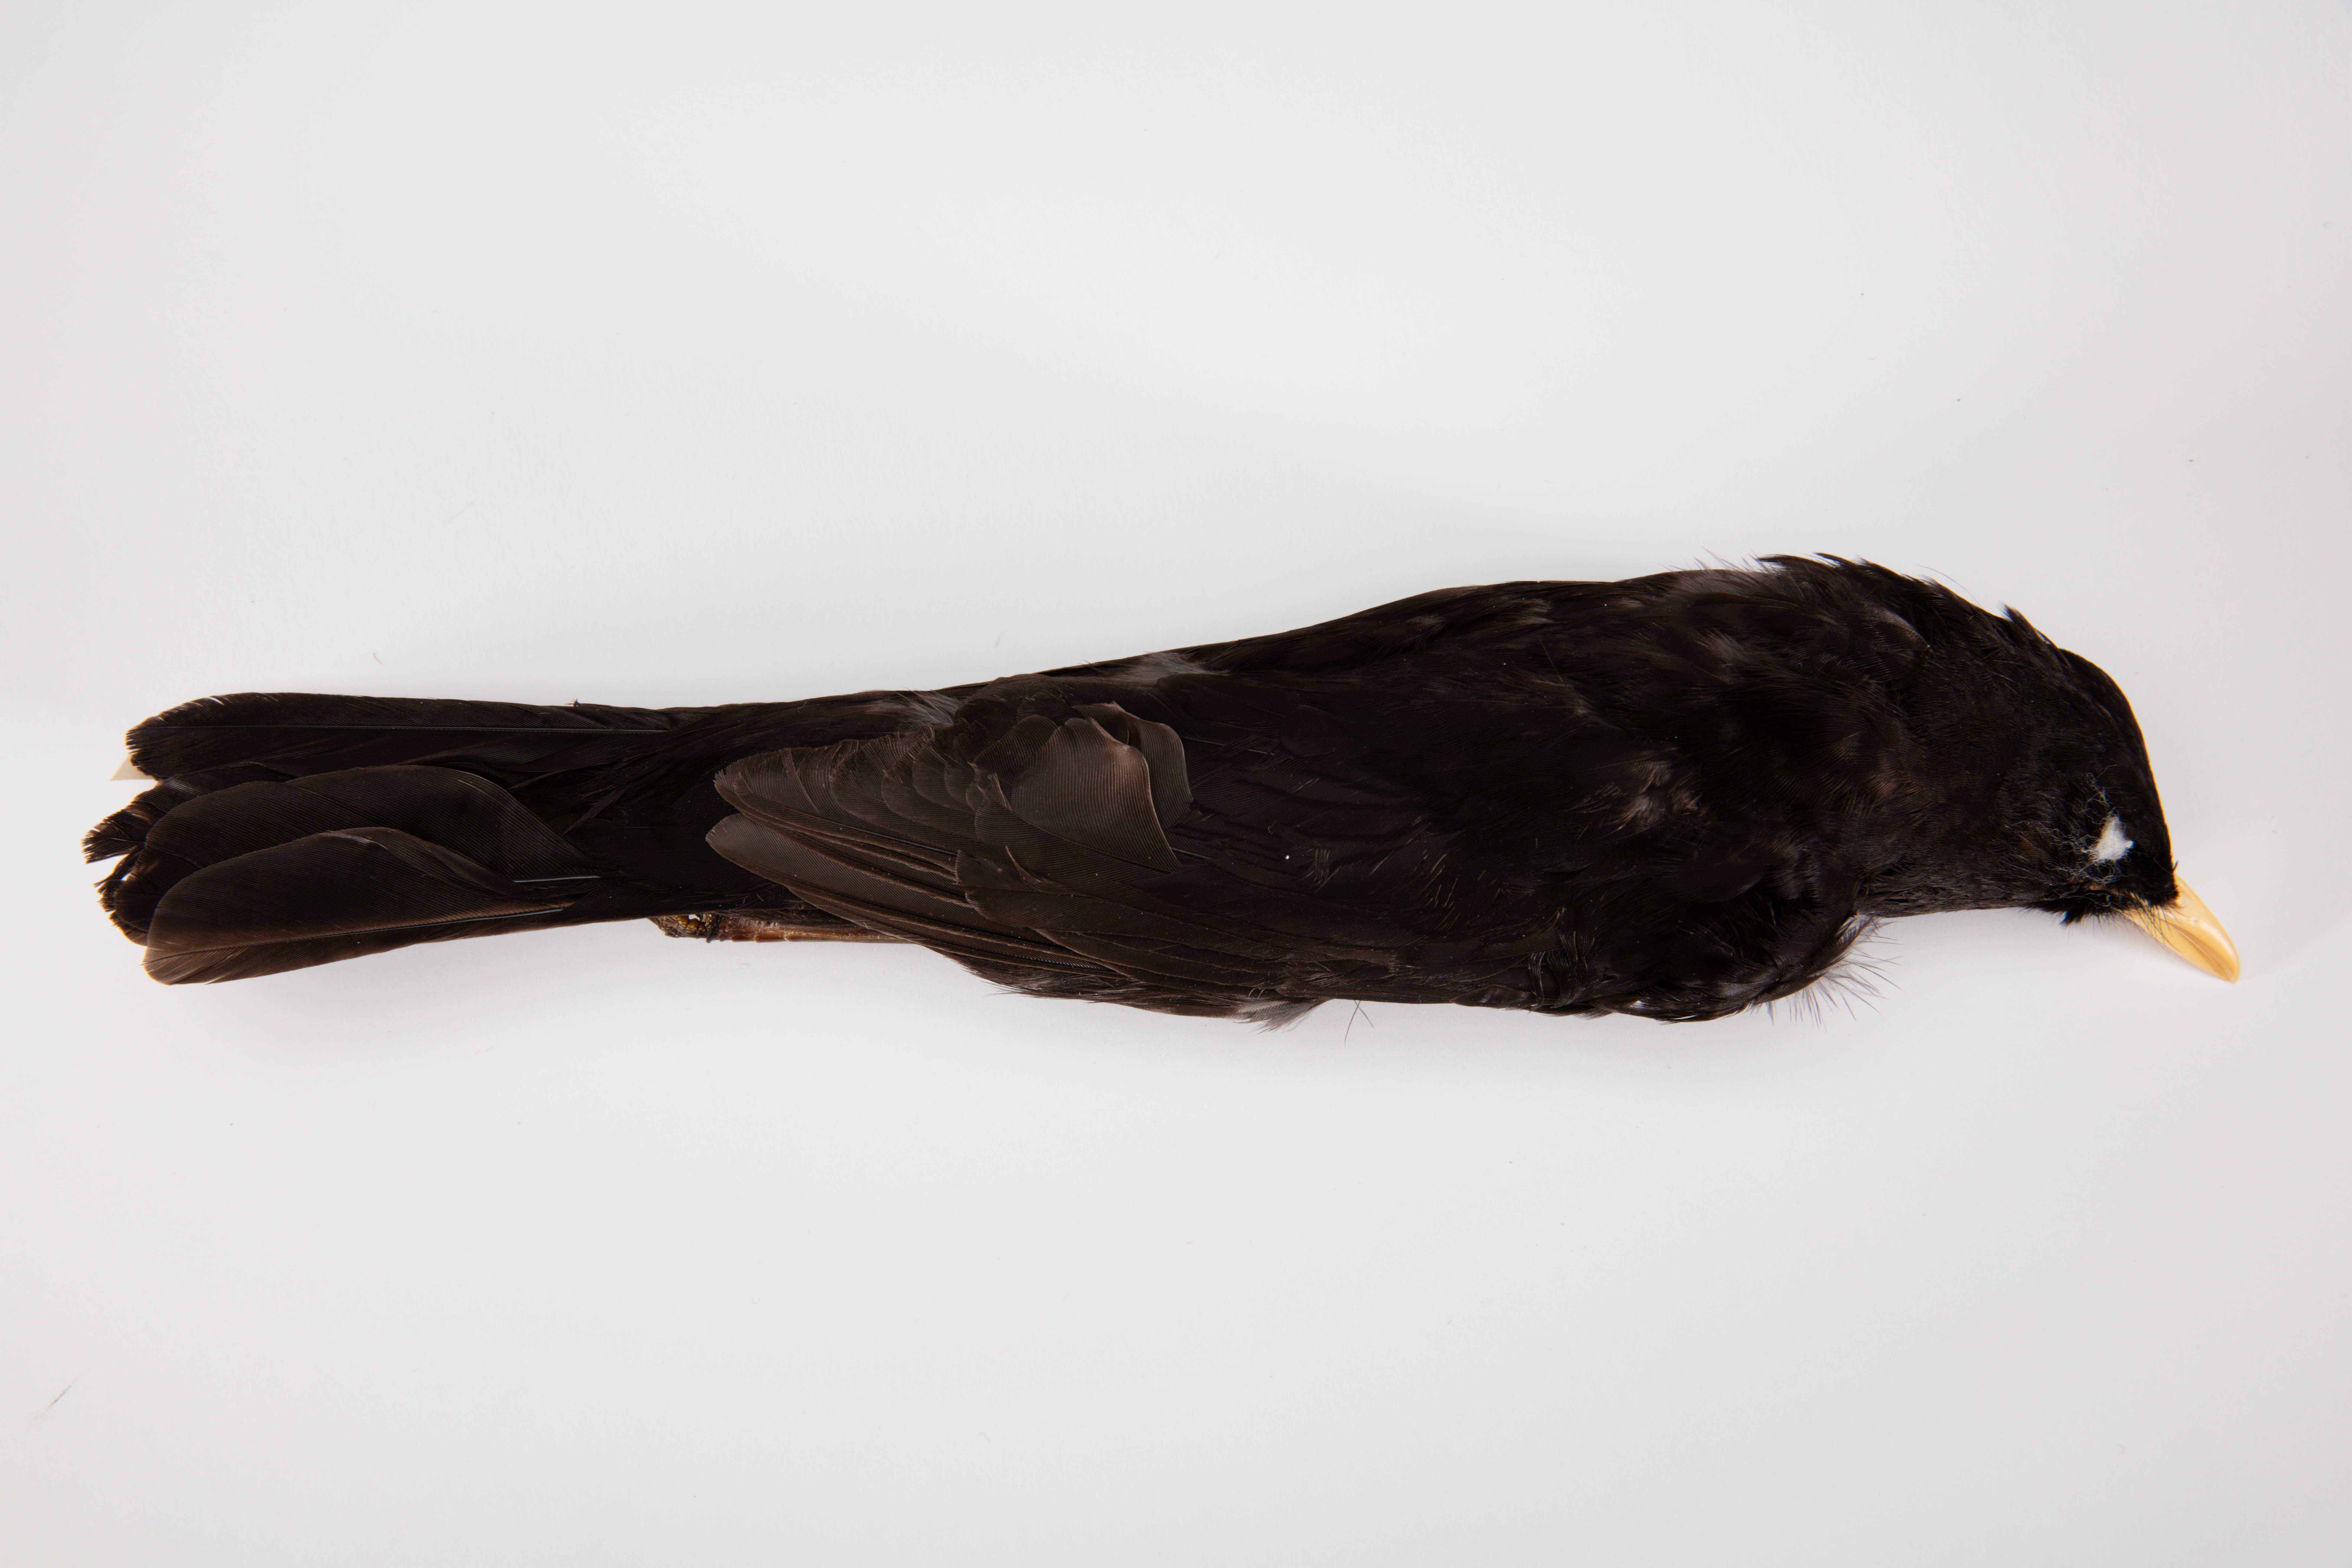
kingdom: Animalia
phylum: Chordata
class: Aves
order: Passeriformes
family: Turdidae
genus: Turdus
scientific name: Turdus merula
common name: Common blackbird
